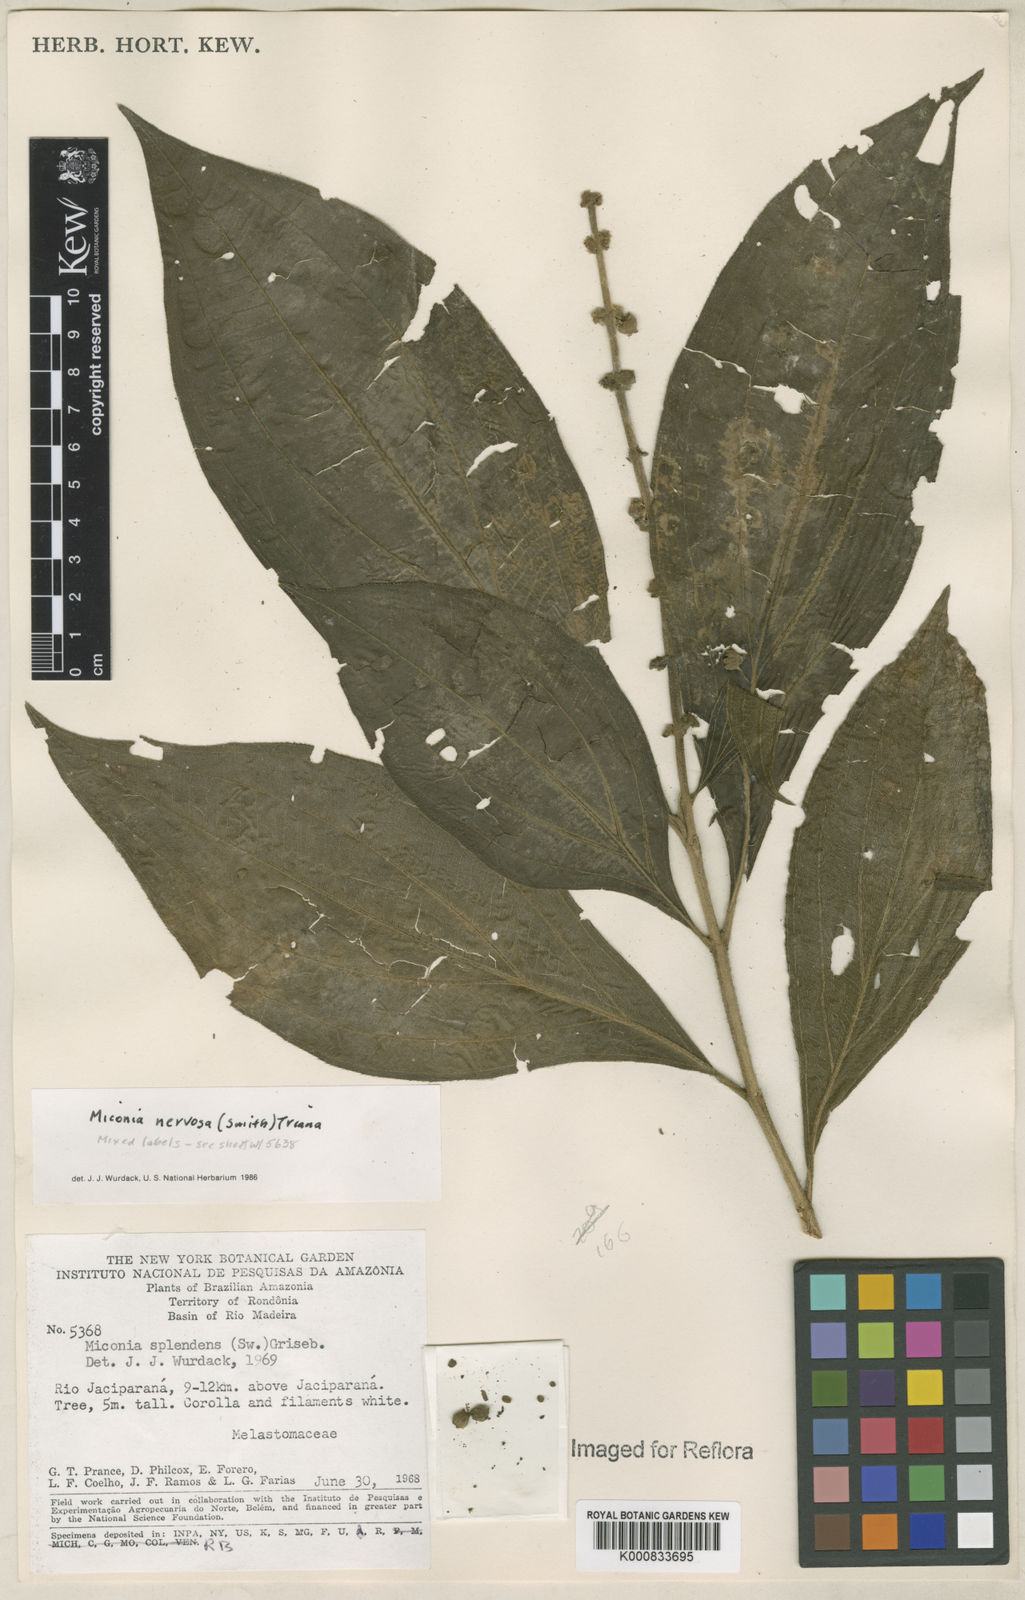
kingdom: Plantae
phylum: Tracheophyta
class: Magnoliopsida
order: Myrtales
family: Melastomataceae
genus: Miconia
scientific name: Miconia nervosa
